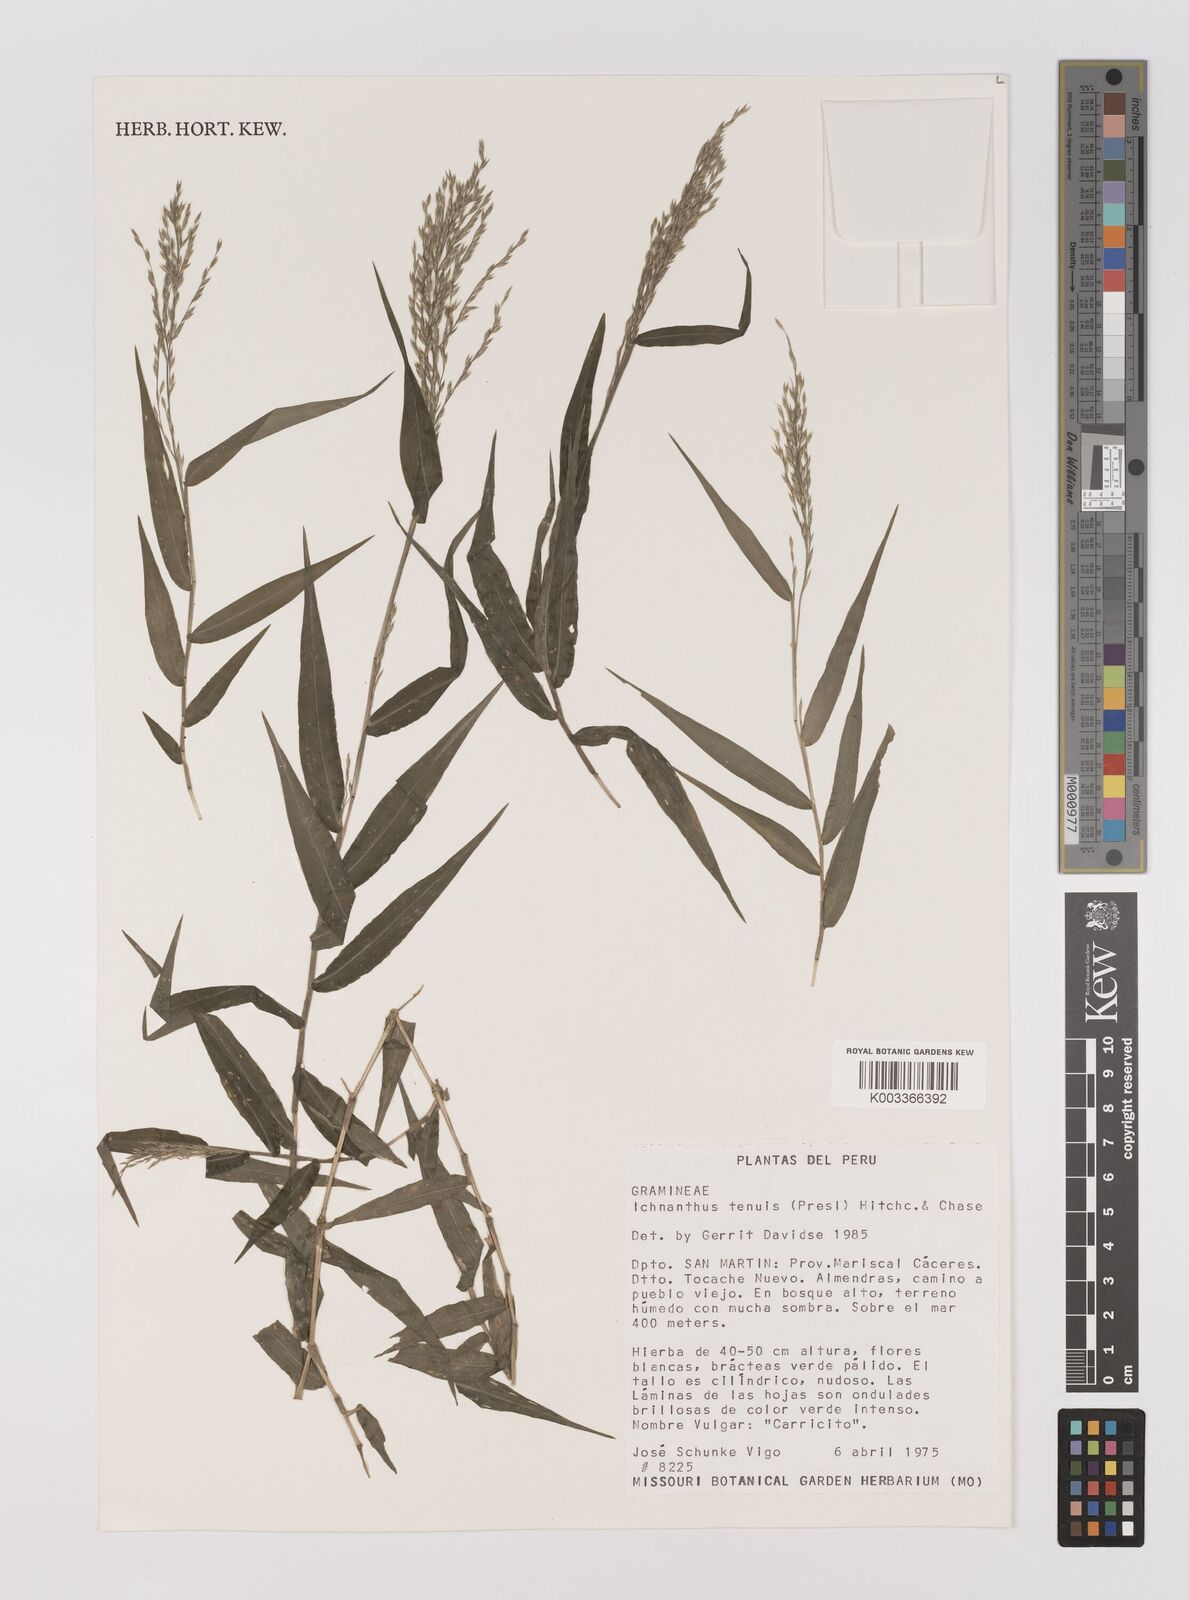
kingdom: Plantae
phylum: Tracheophyta
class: Liliopsida
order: Poales
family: Poaceae
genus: Ichnanthus
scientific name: Ichnanthus tenuis
